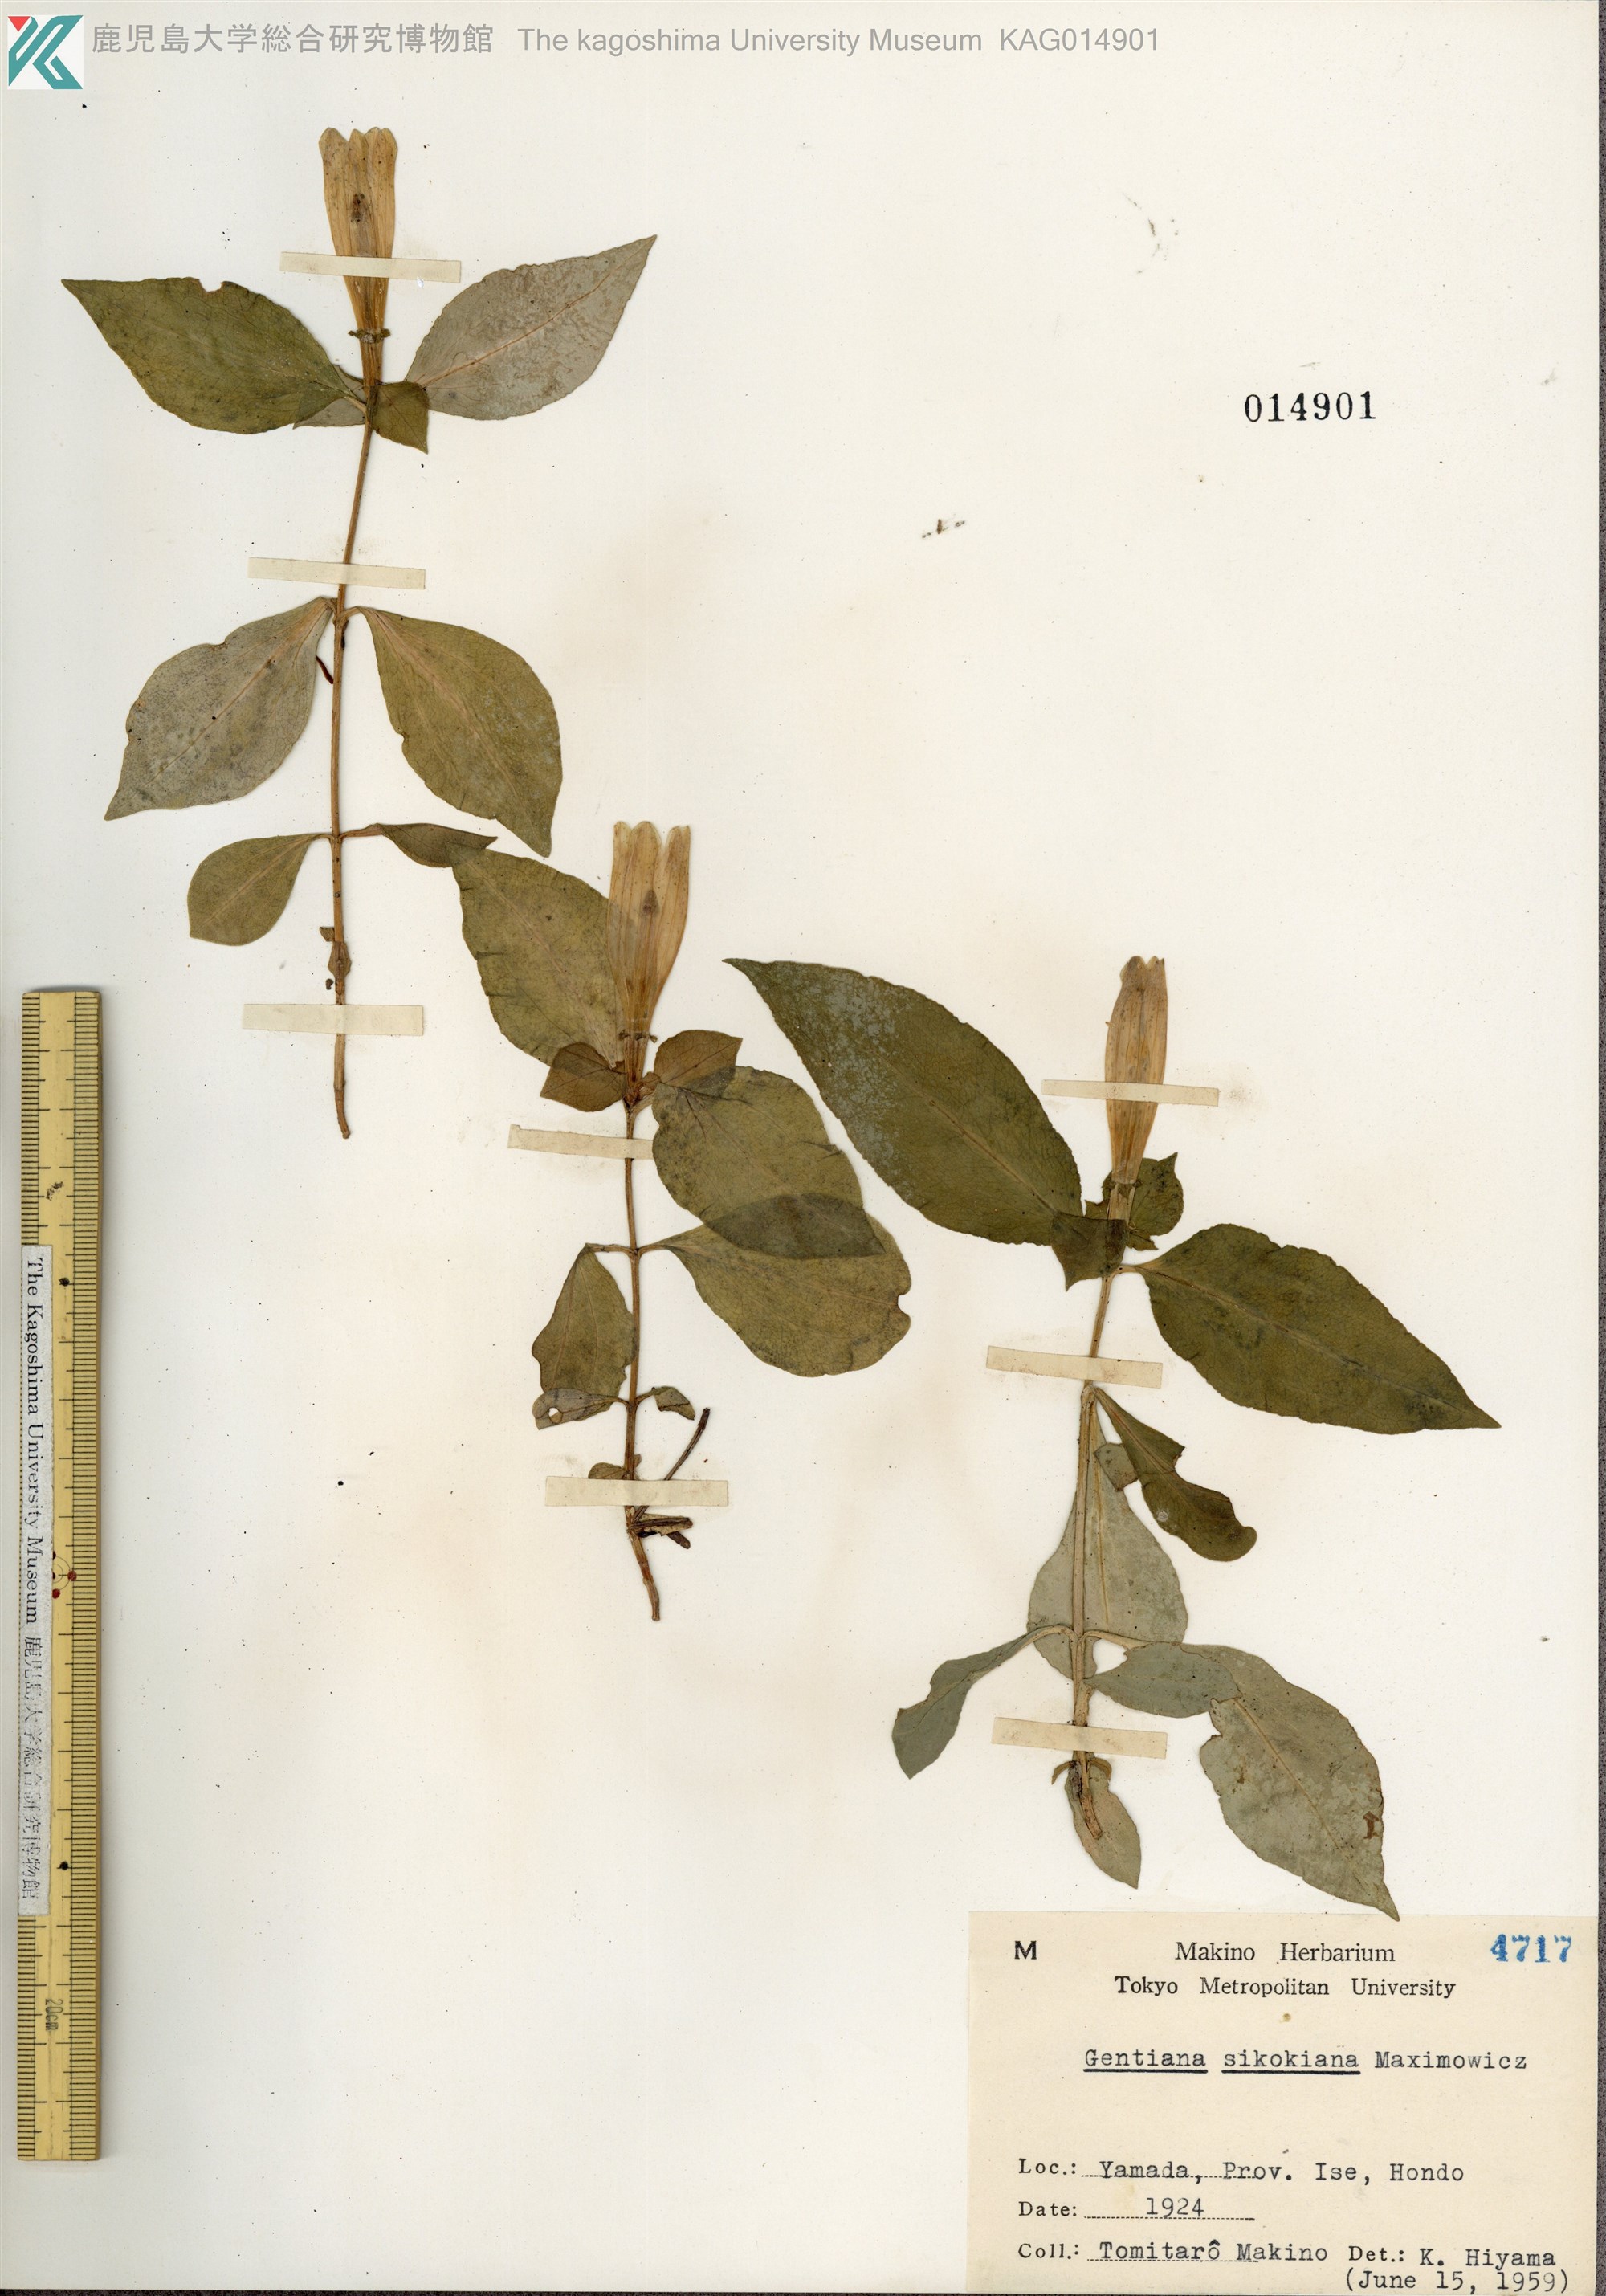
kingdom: Plantae
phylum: Tracheophyta
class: Magnoliopsida
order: Gentianales
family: Gentianaceae
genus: Gentiana
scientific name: Gentiana sikokiana
